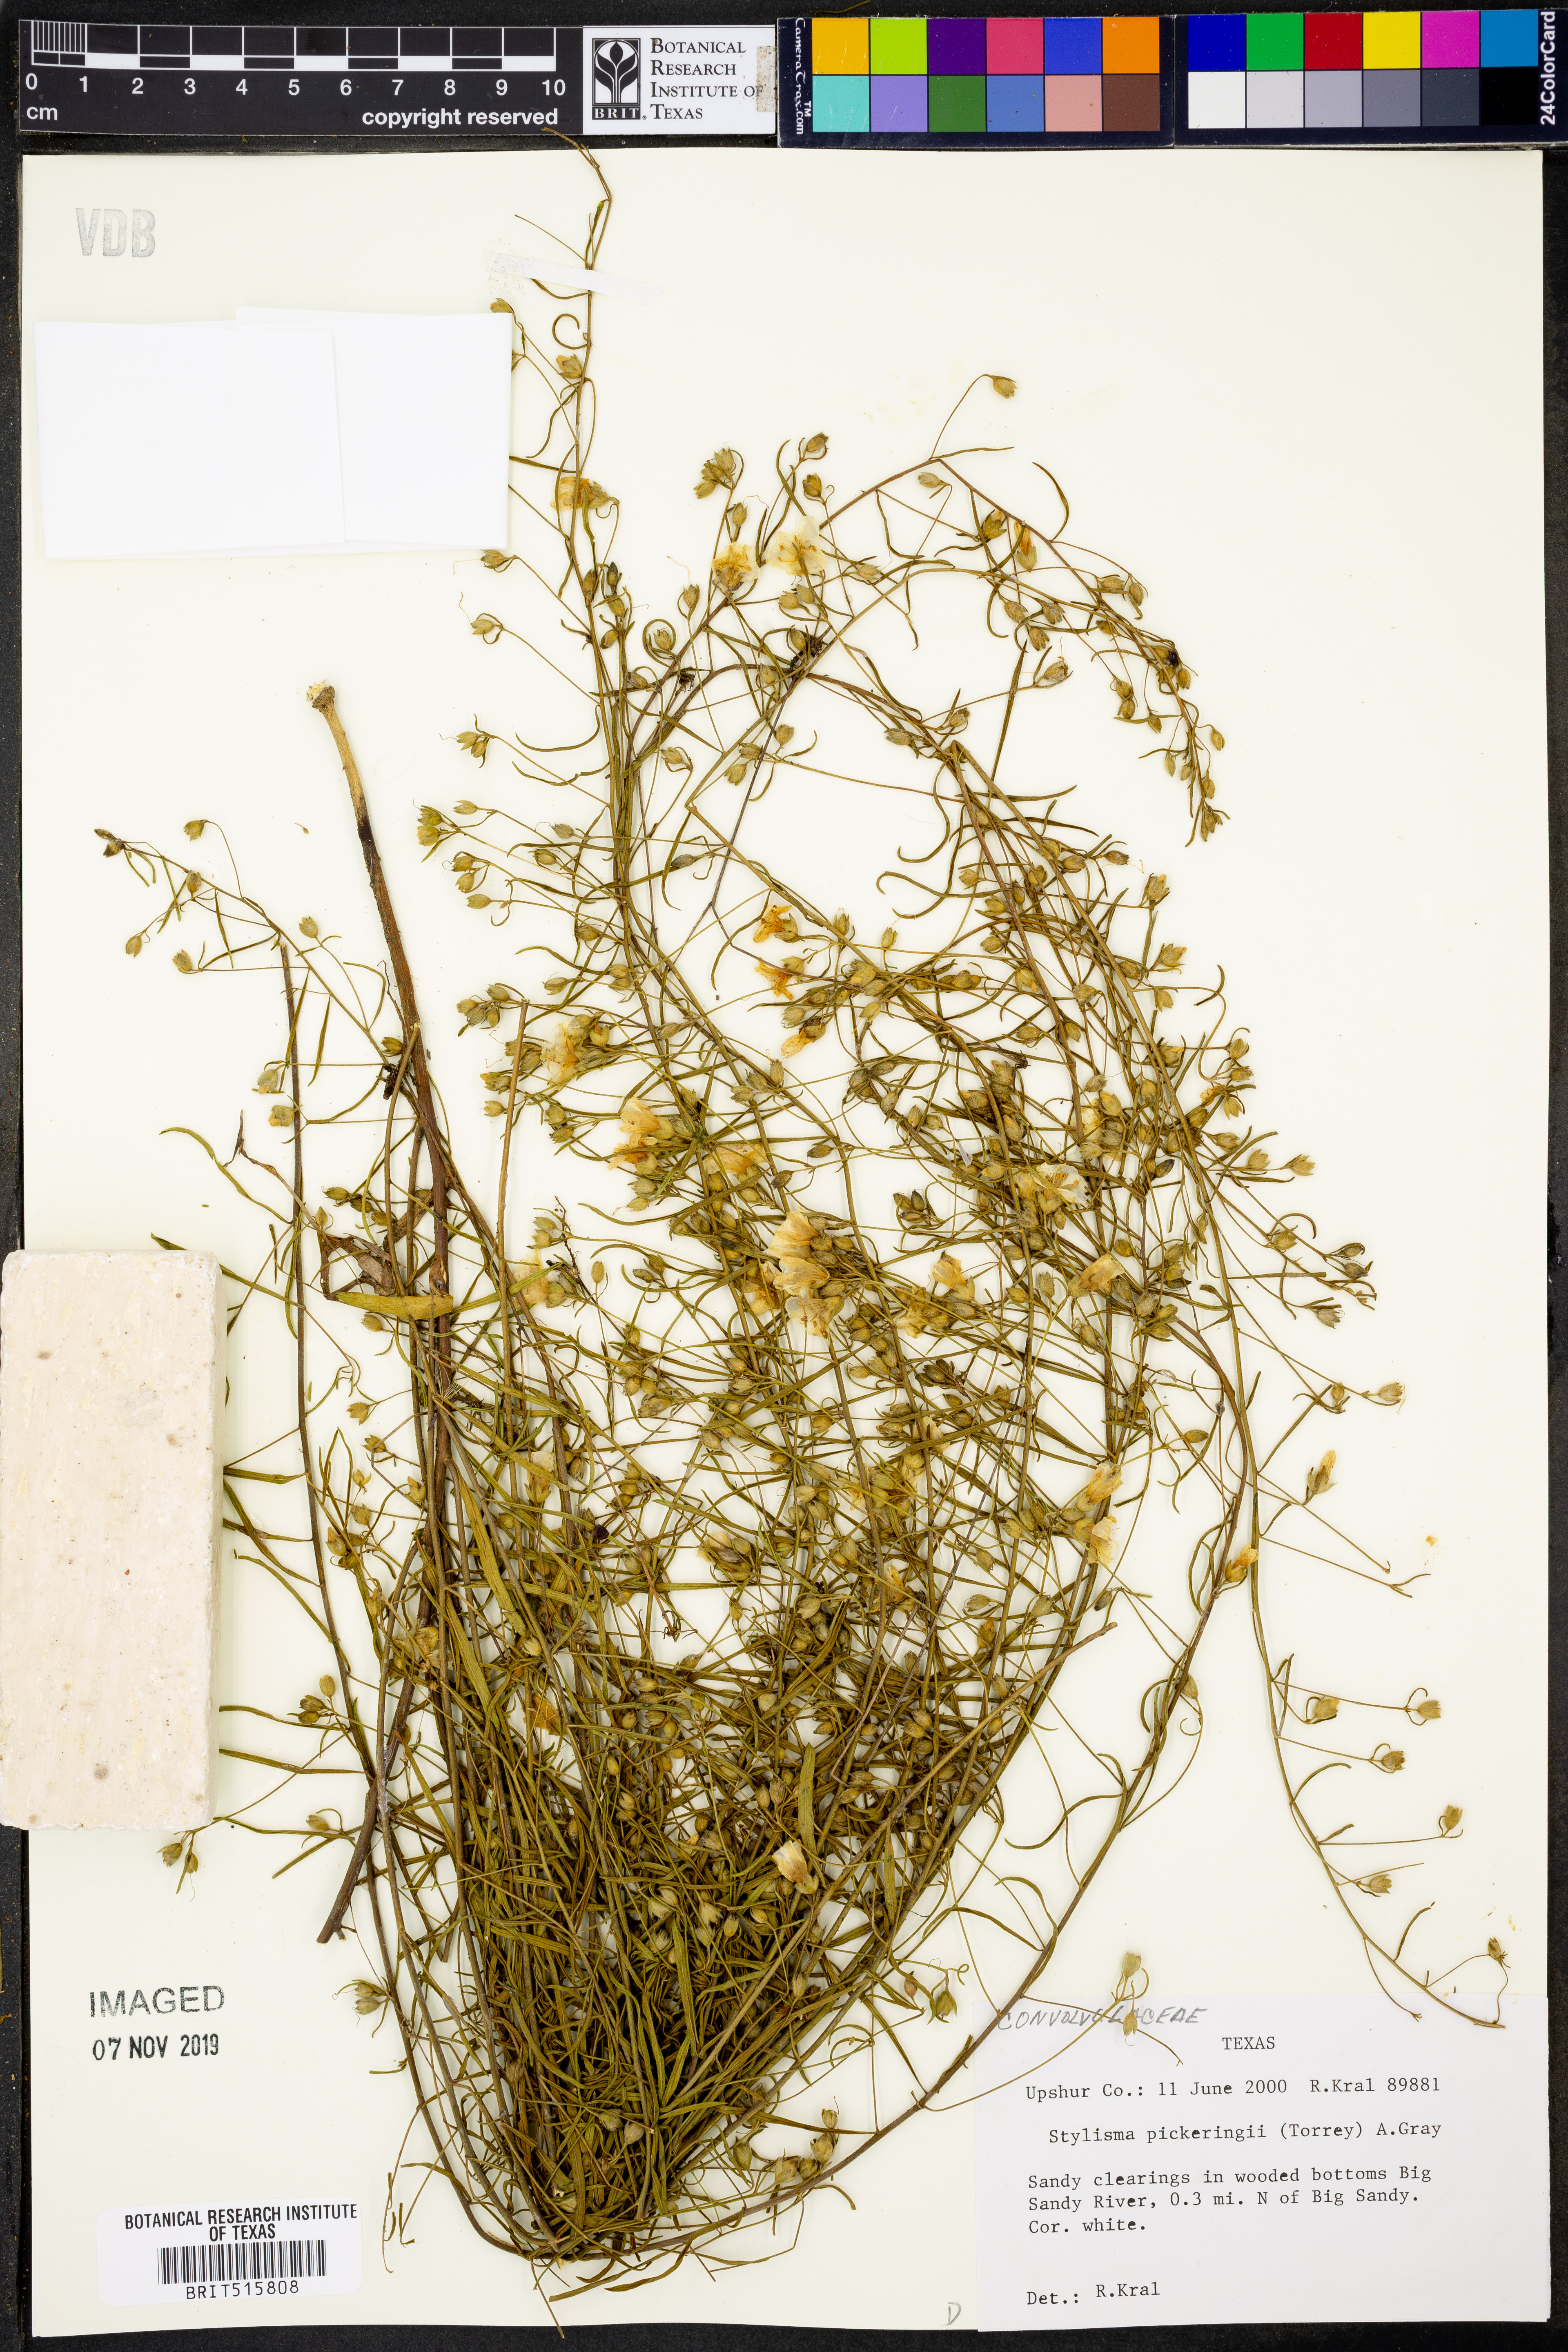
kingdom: Plantae
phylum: Tracheophyta
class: Magnoliopsida
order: Solanales
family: Convolvulaceae
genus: Stylisma
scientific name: Stylisma pickeringii
